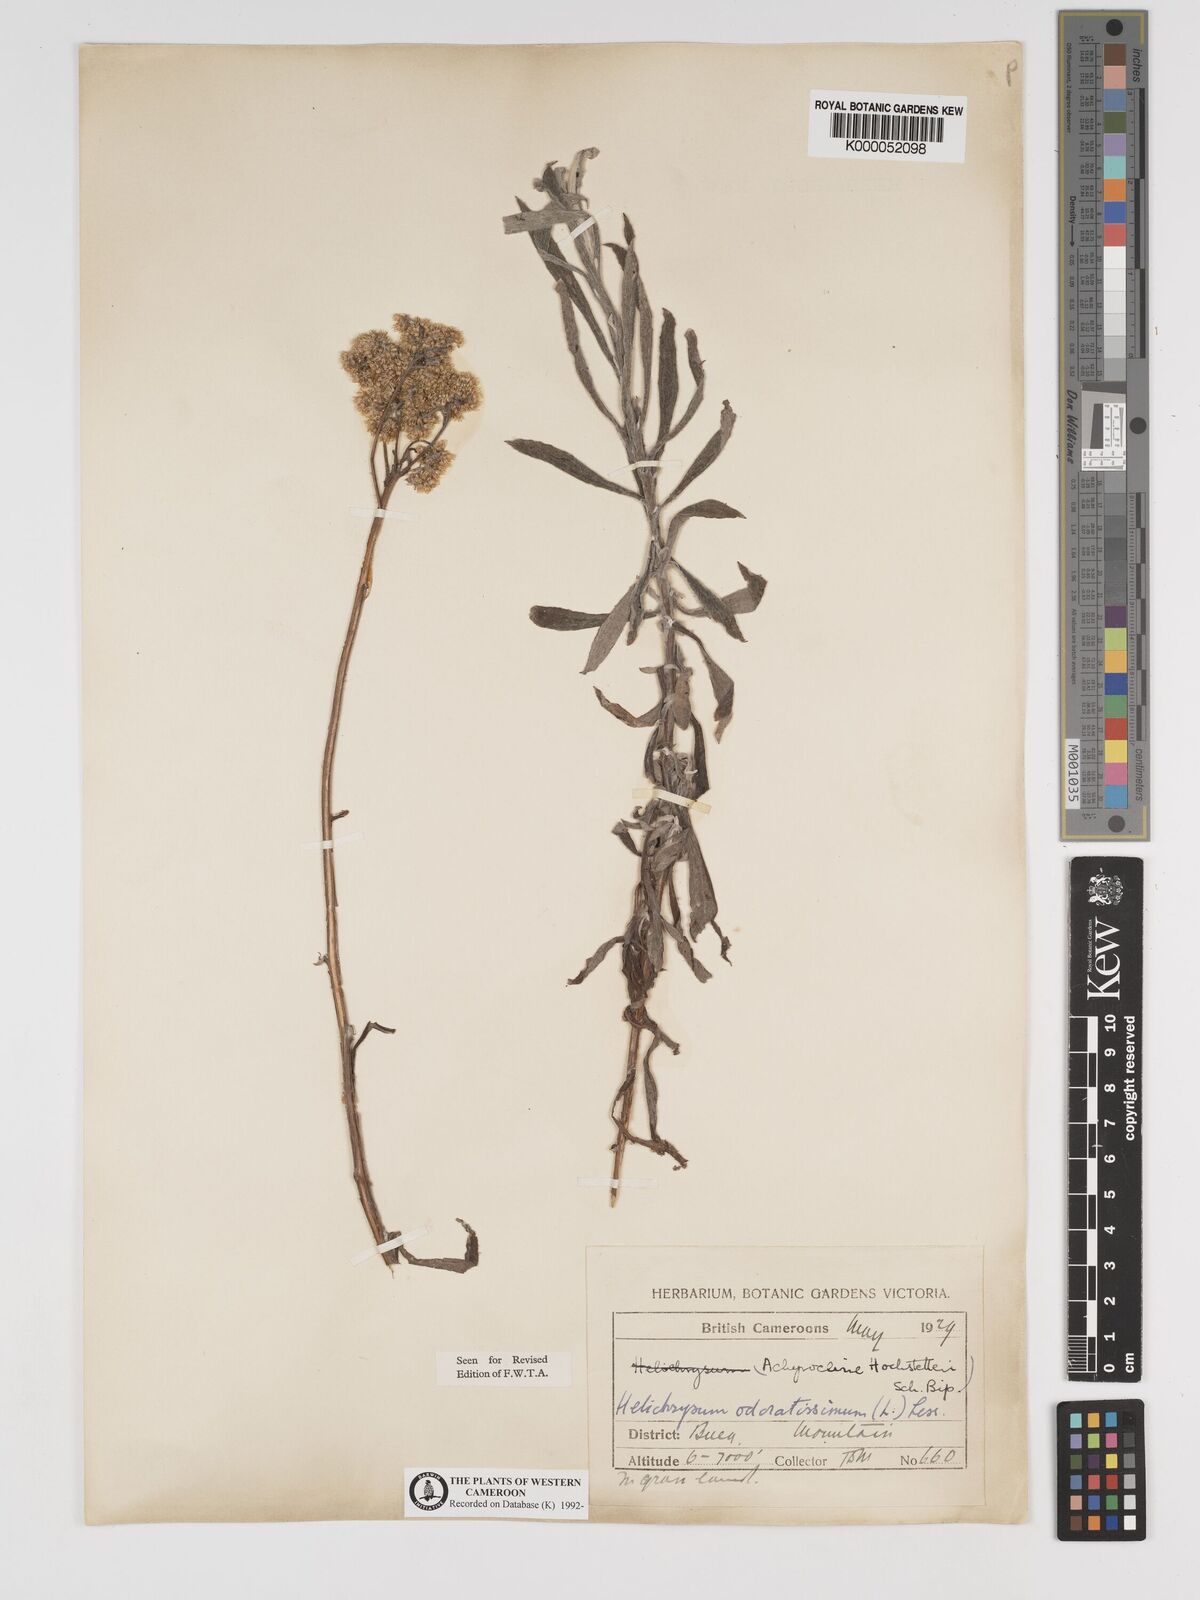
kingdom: Plantae
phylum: Tracheophyta
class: Magnoliopsida
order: Asterales
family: Asteraceae
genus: Helichrysum
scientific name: Helichrysum odoratissimum
